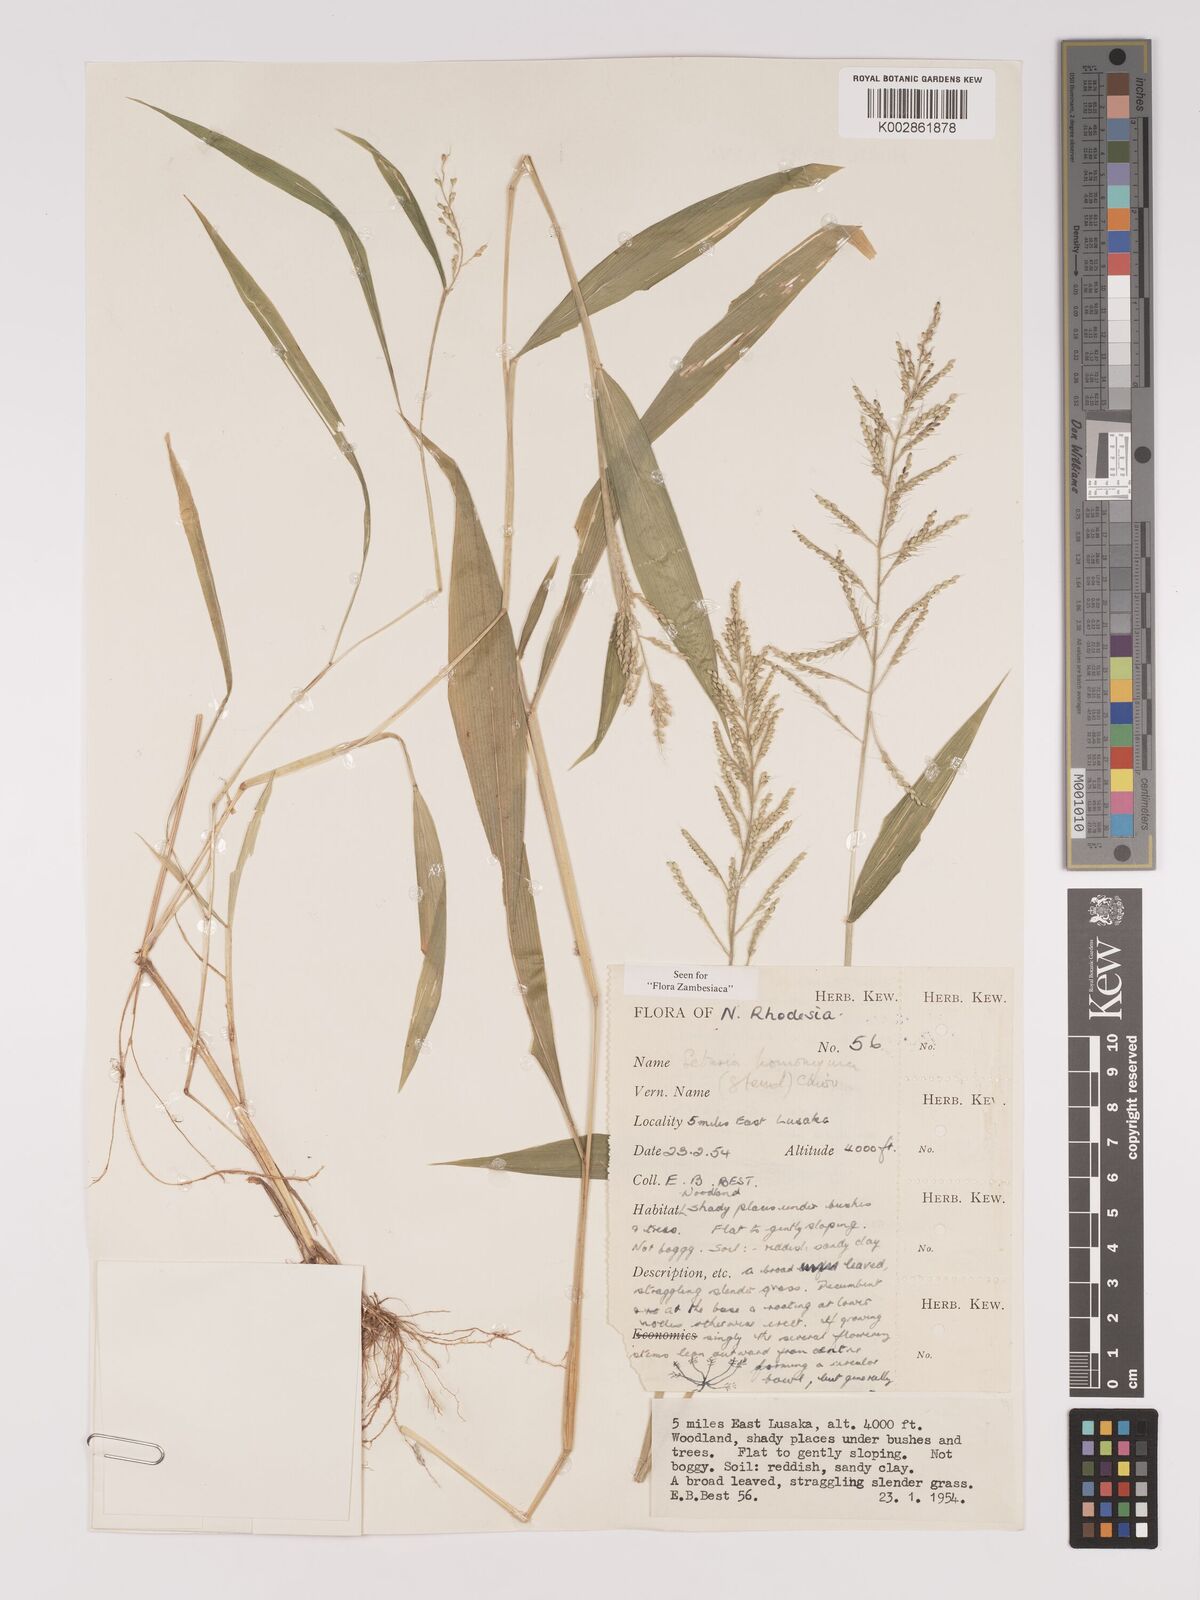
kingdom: Plantae
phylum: Tracheophyta
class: Liliopsida
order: Poales
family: Poaceae
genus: Setaria
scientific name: Setaria homonyma
